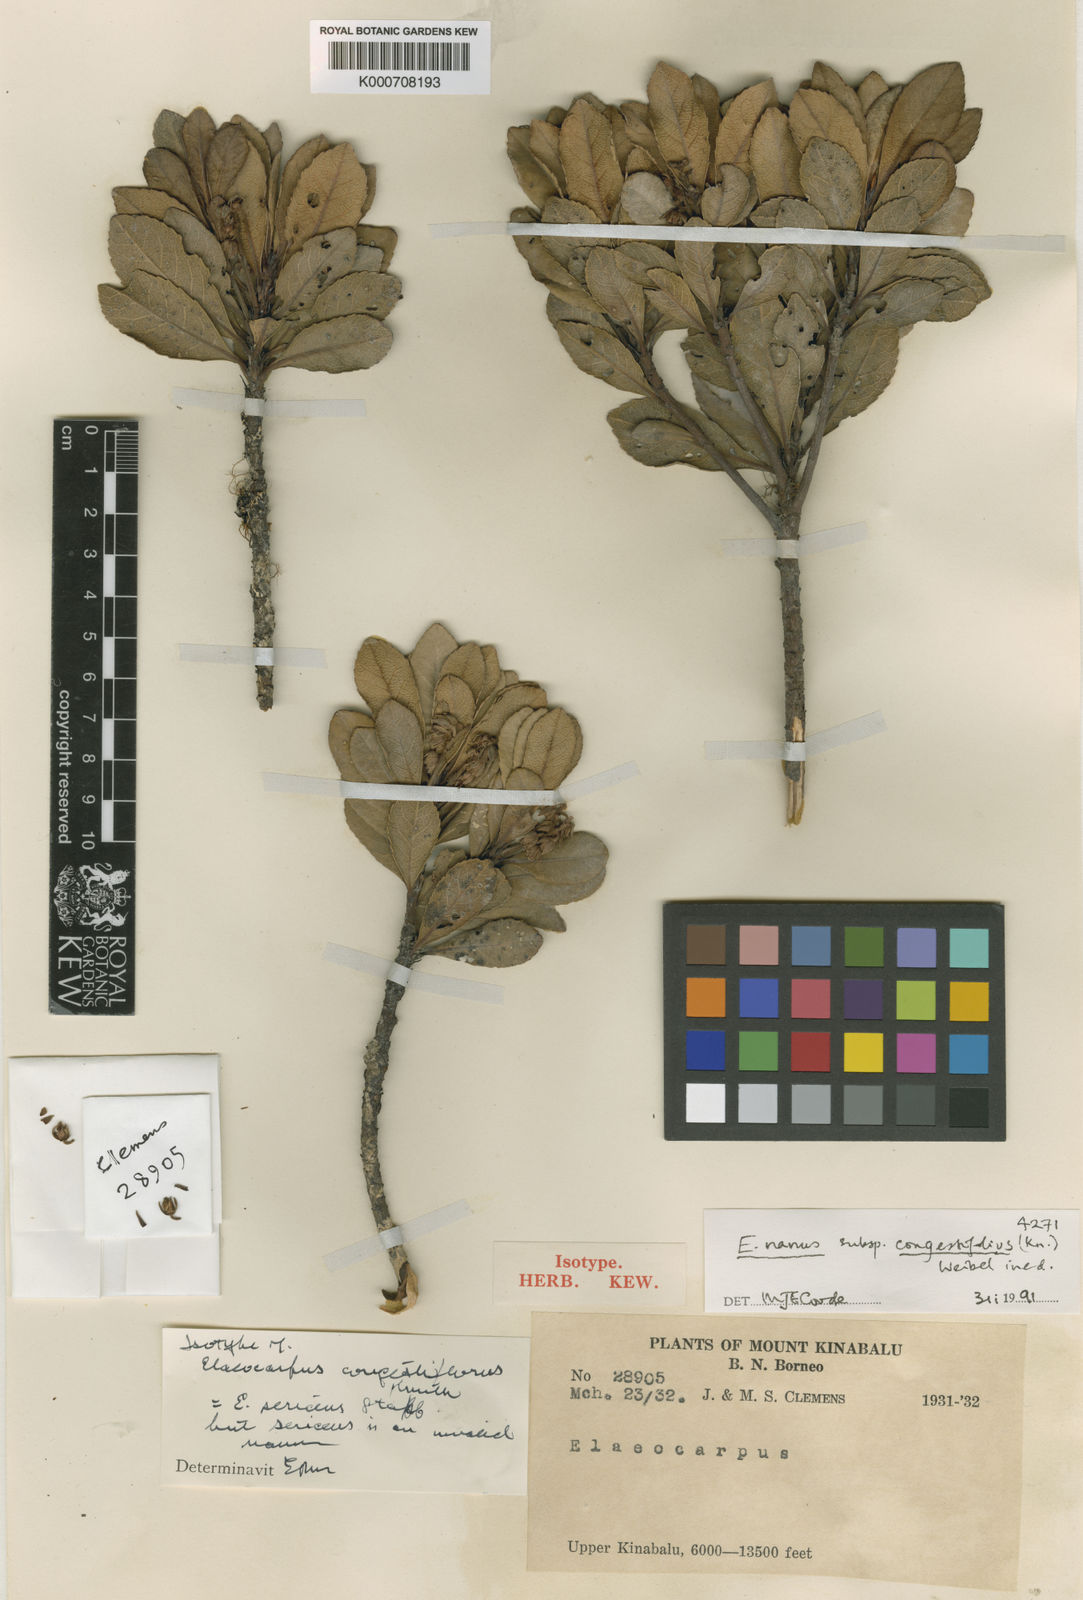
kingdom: Plantae
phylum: Tracheophyta
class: Magnoliopsida
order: Oxalidales
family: Elaeocarpaceae
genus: Elaeocarpus
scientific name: Elaeocarpus nanus
